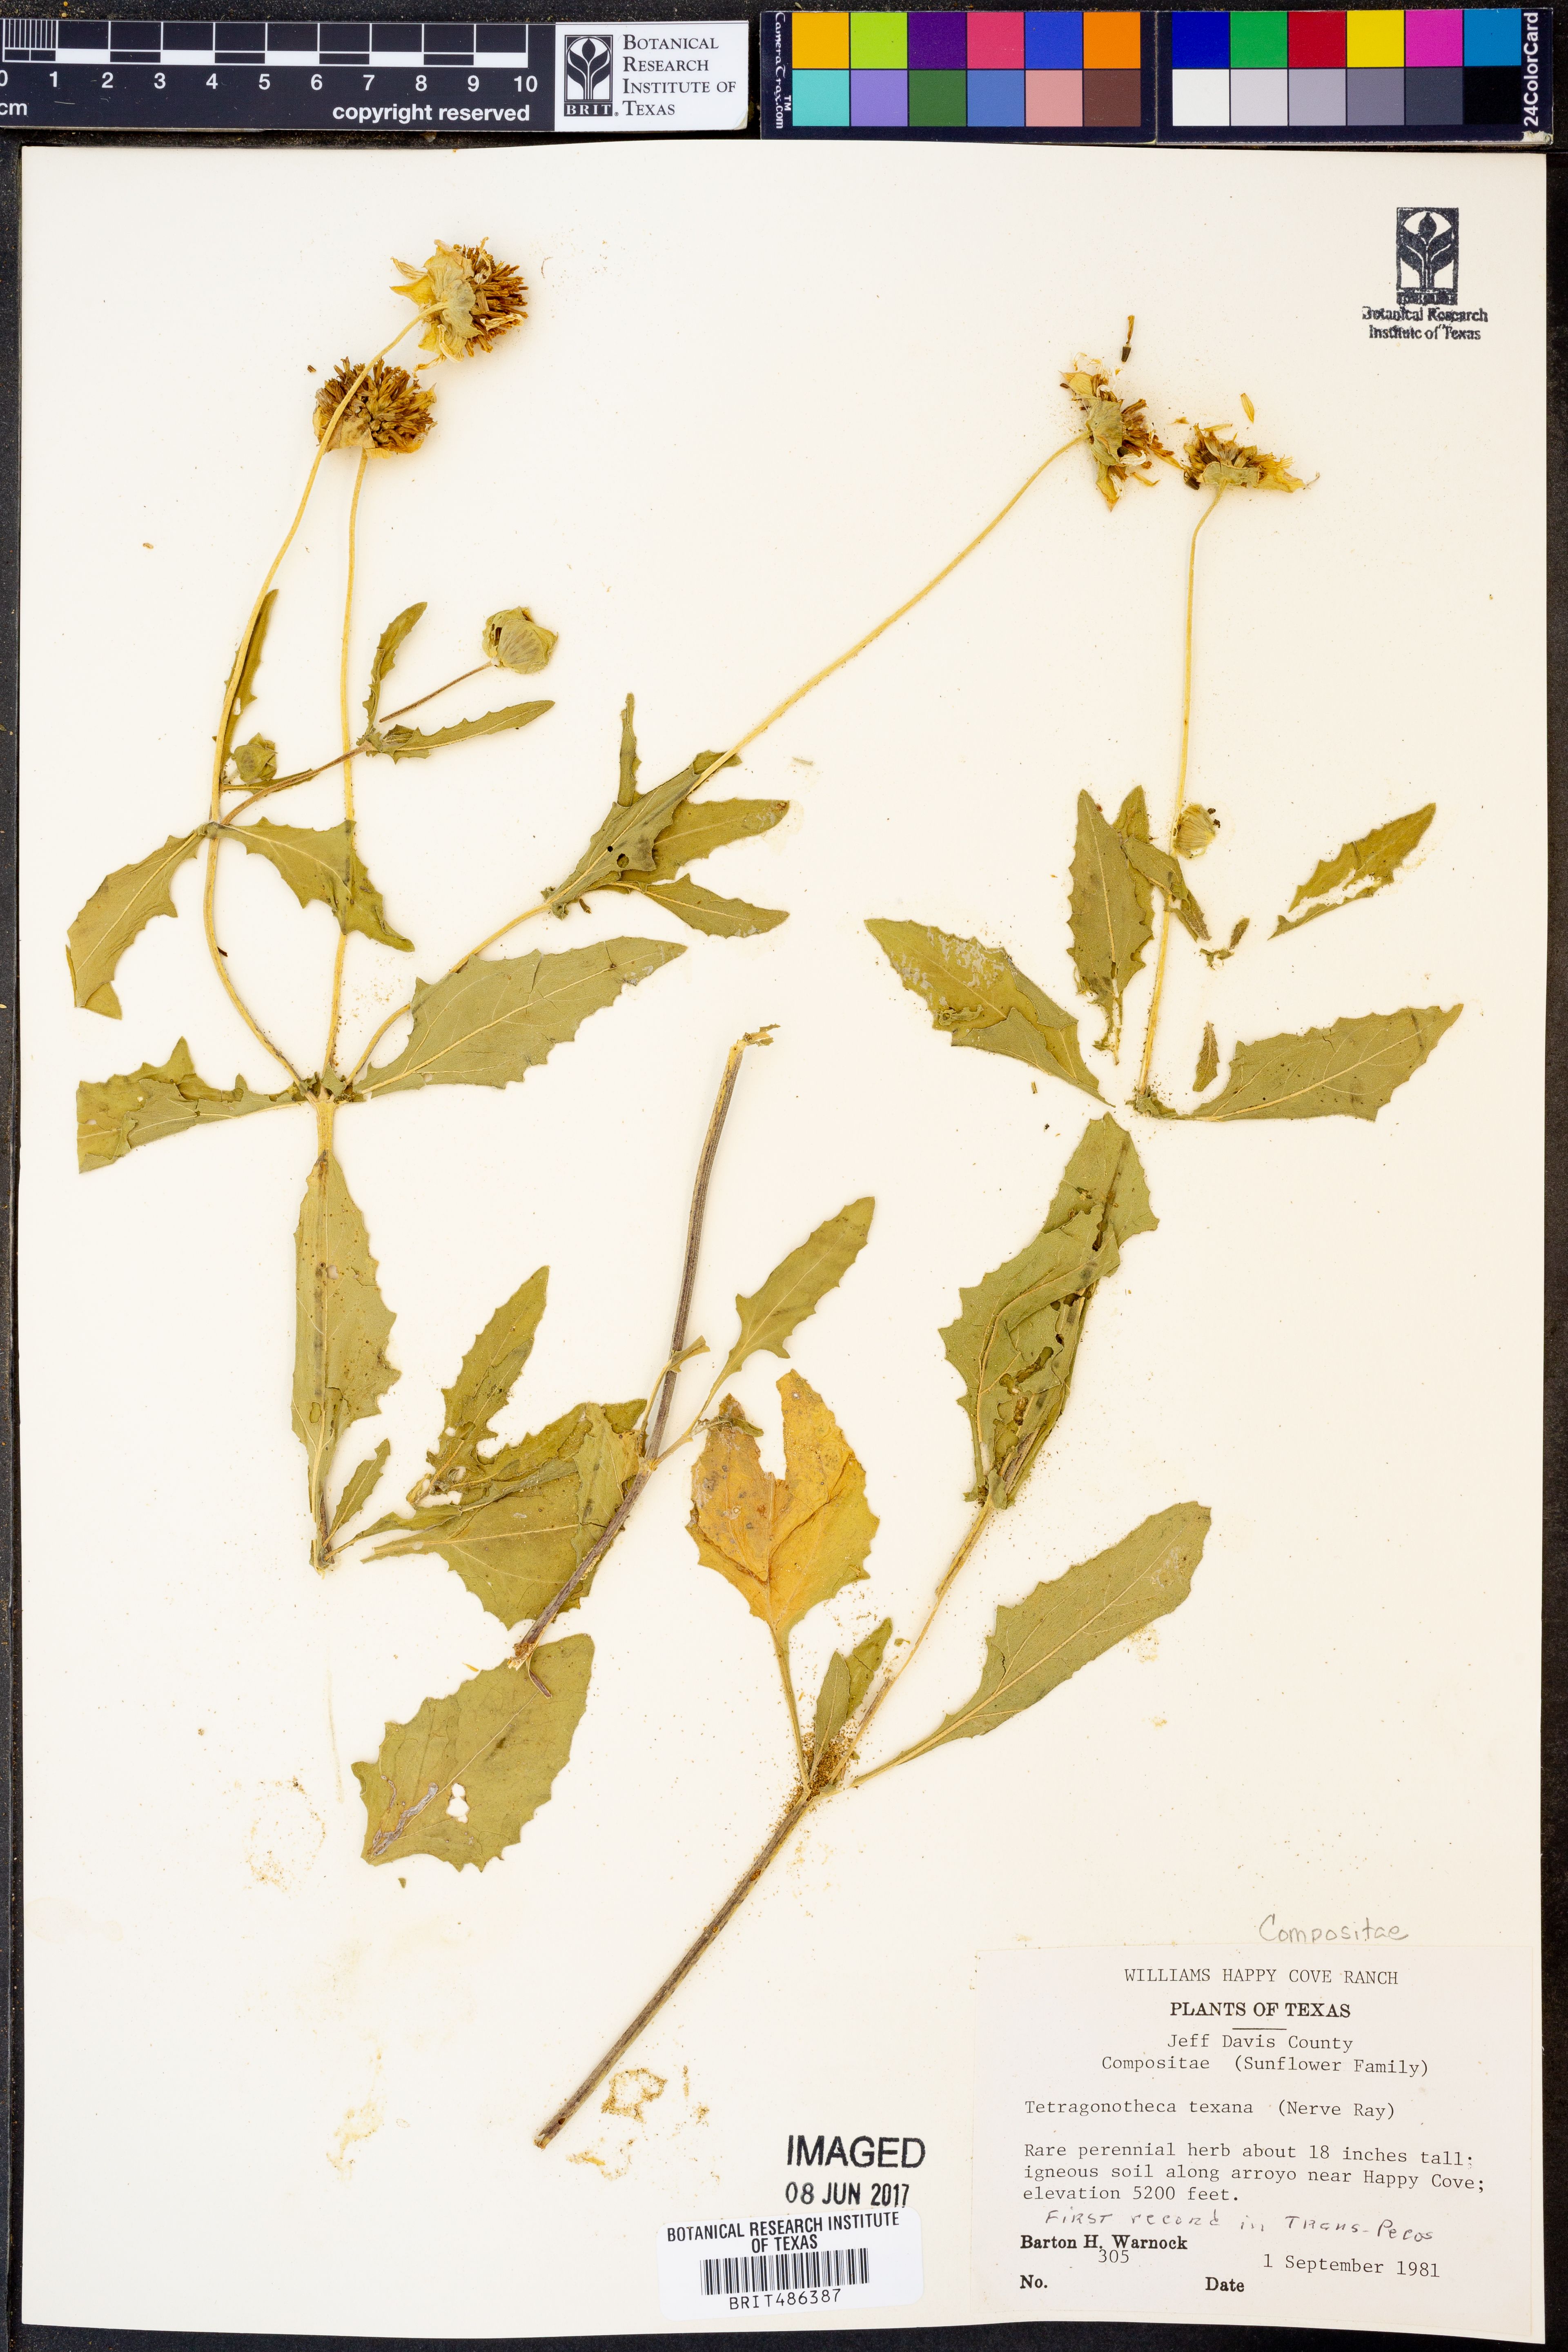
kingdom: Plantae
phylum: Tracheophyta
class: Magnoliopsida
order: Asterales
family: Asteraceae
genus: Tetragonotheca
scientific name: Tetragonotheca texana
